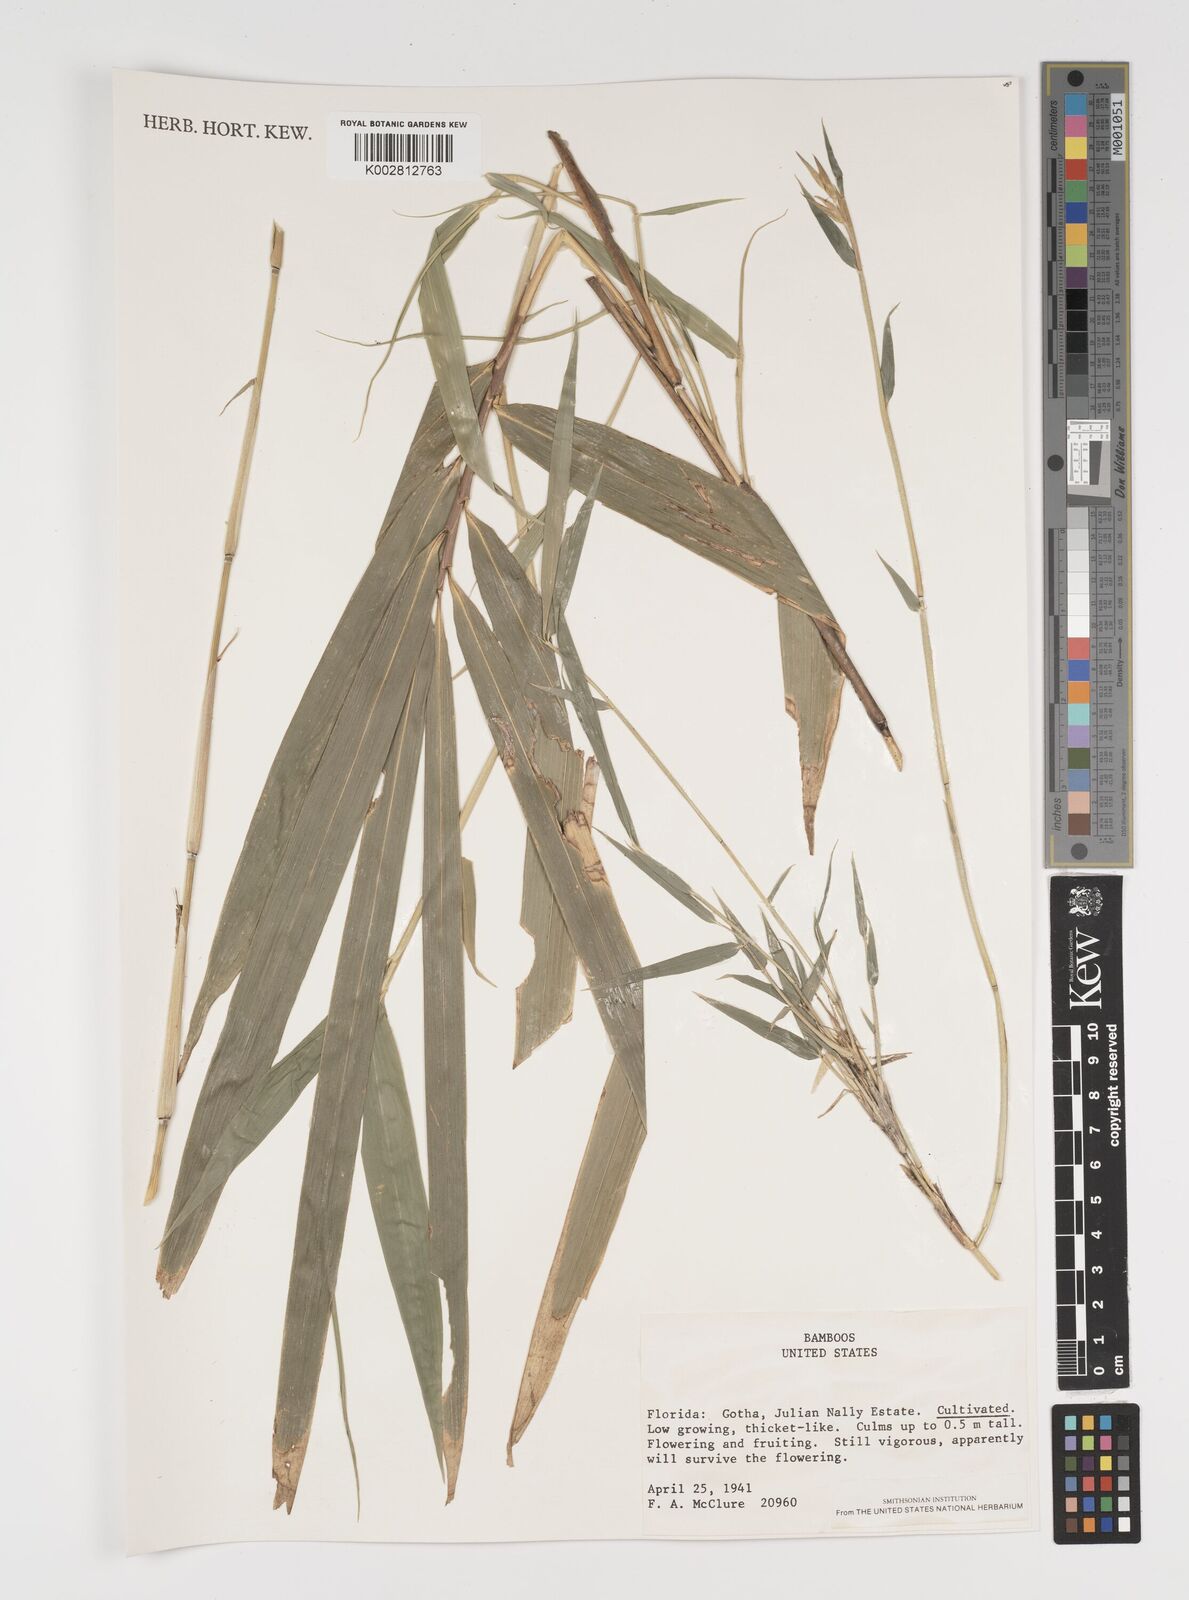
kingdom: Plantae
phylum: Tracheophyta
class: Liliopsida
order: Poales
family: Poaceae
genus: Arundinaria
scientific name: Arundinaria
